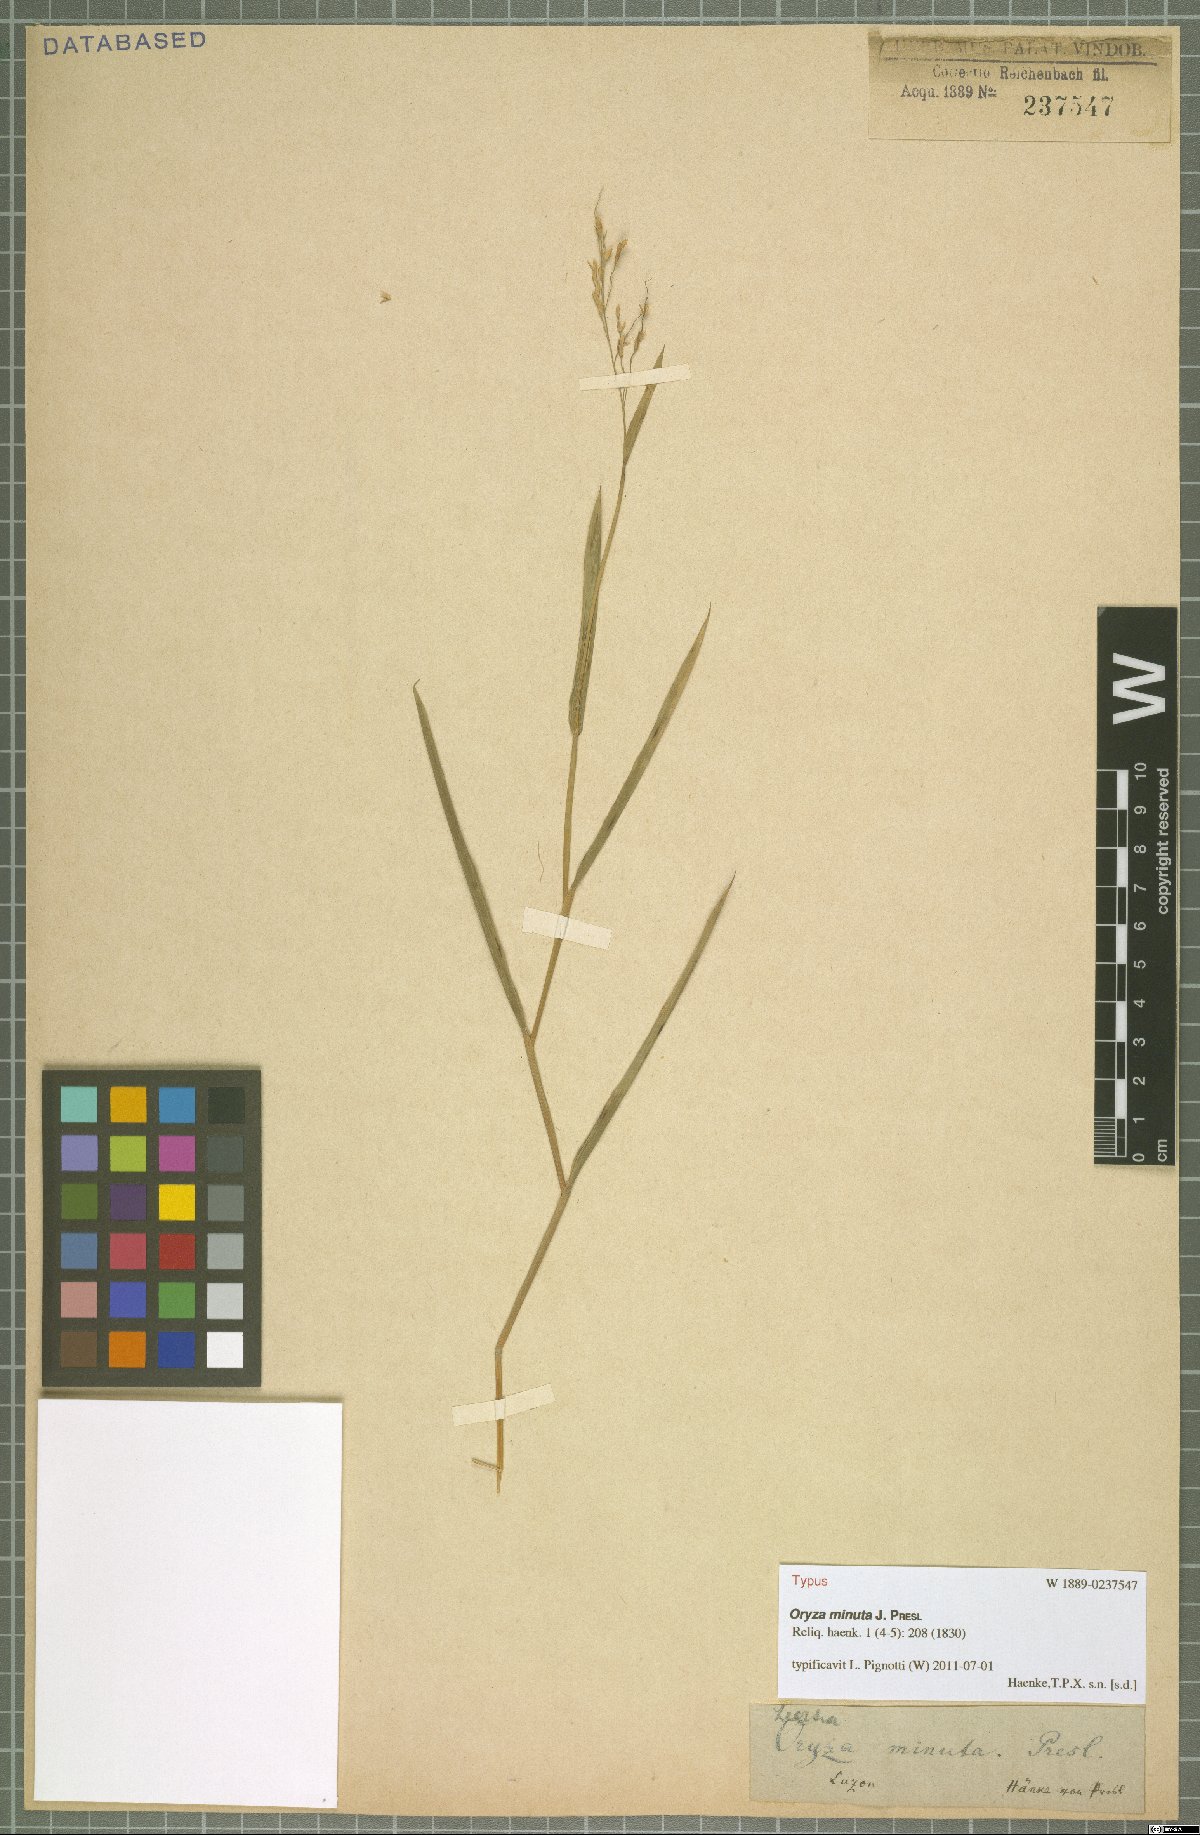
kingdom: Plantae
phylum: Tracheophyta
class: Liliopsida
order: Poales
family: Poaceae
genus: Oryza
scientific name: Oryza minuta
